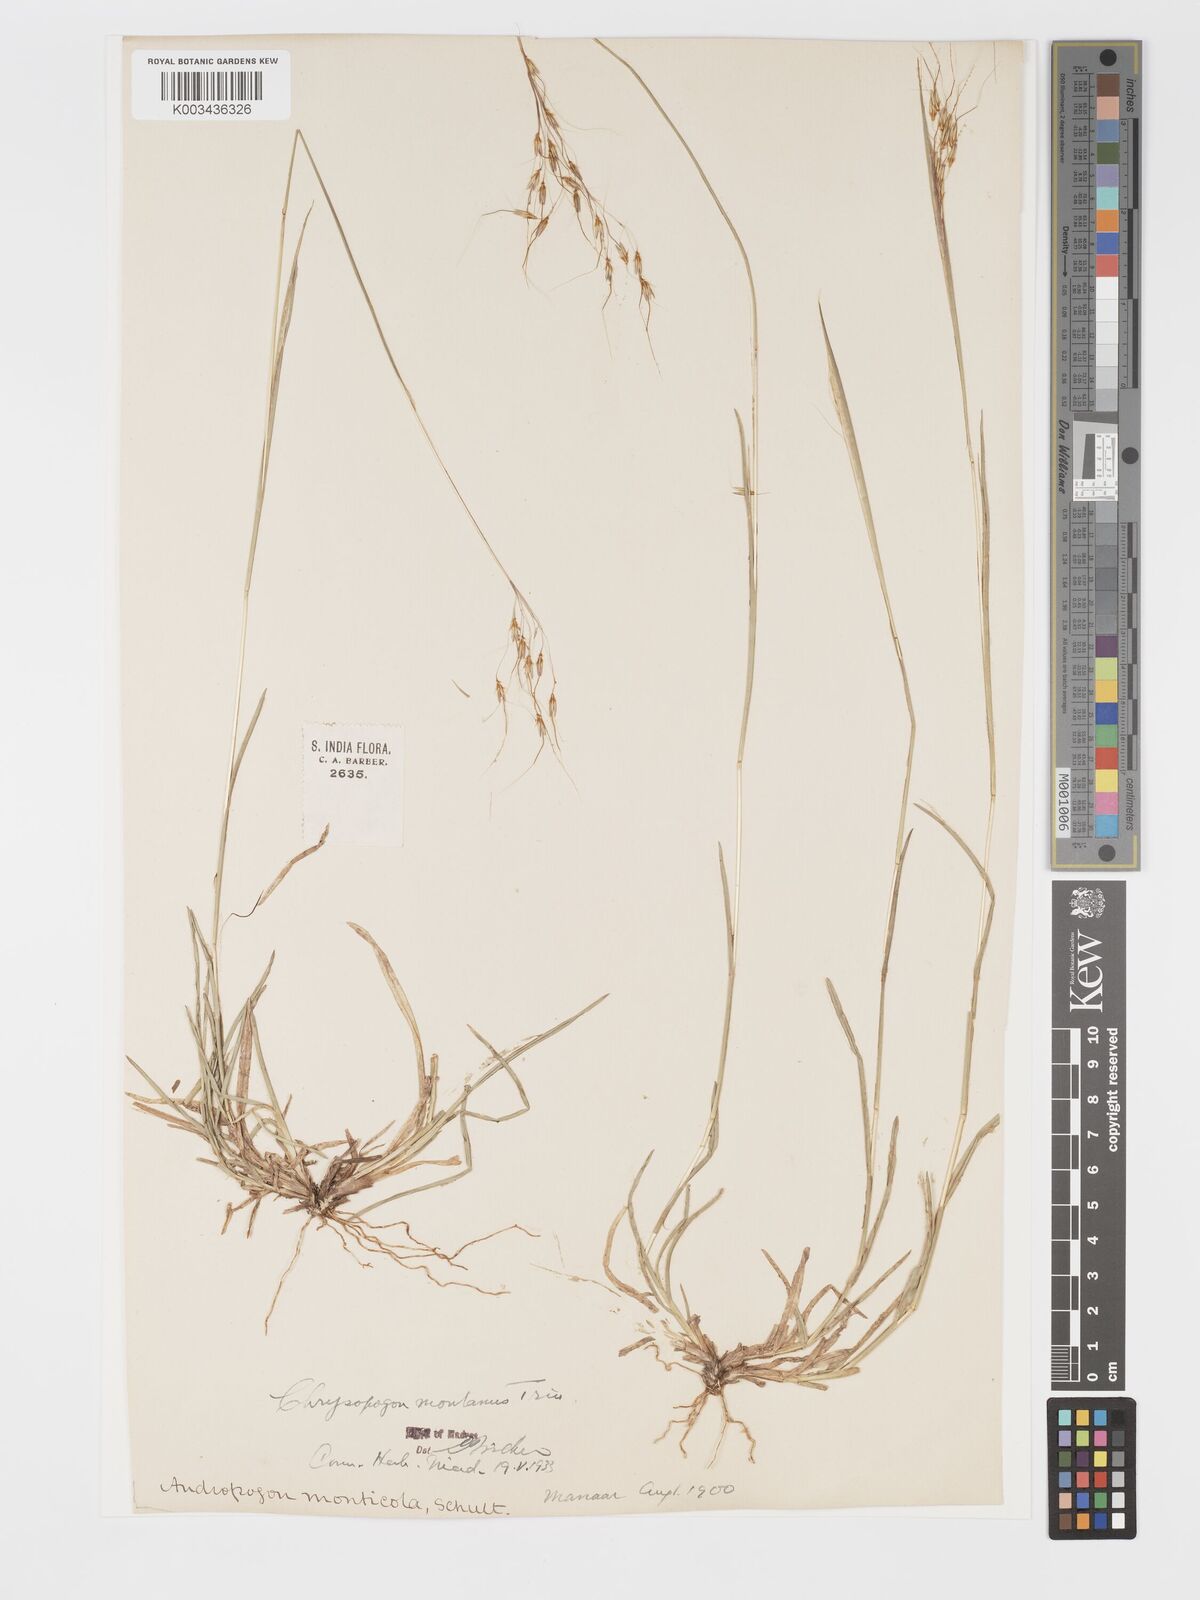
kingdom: Plantae
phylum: Tracheophyta
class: Liliopsida
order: Poales
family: Poaceae
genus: Chrysopogon
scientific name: Chrysopogon fulvus
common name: Red false beardgrass
